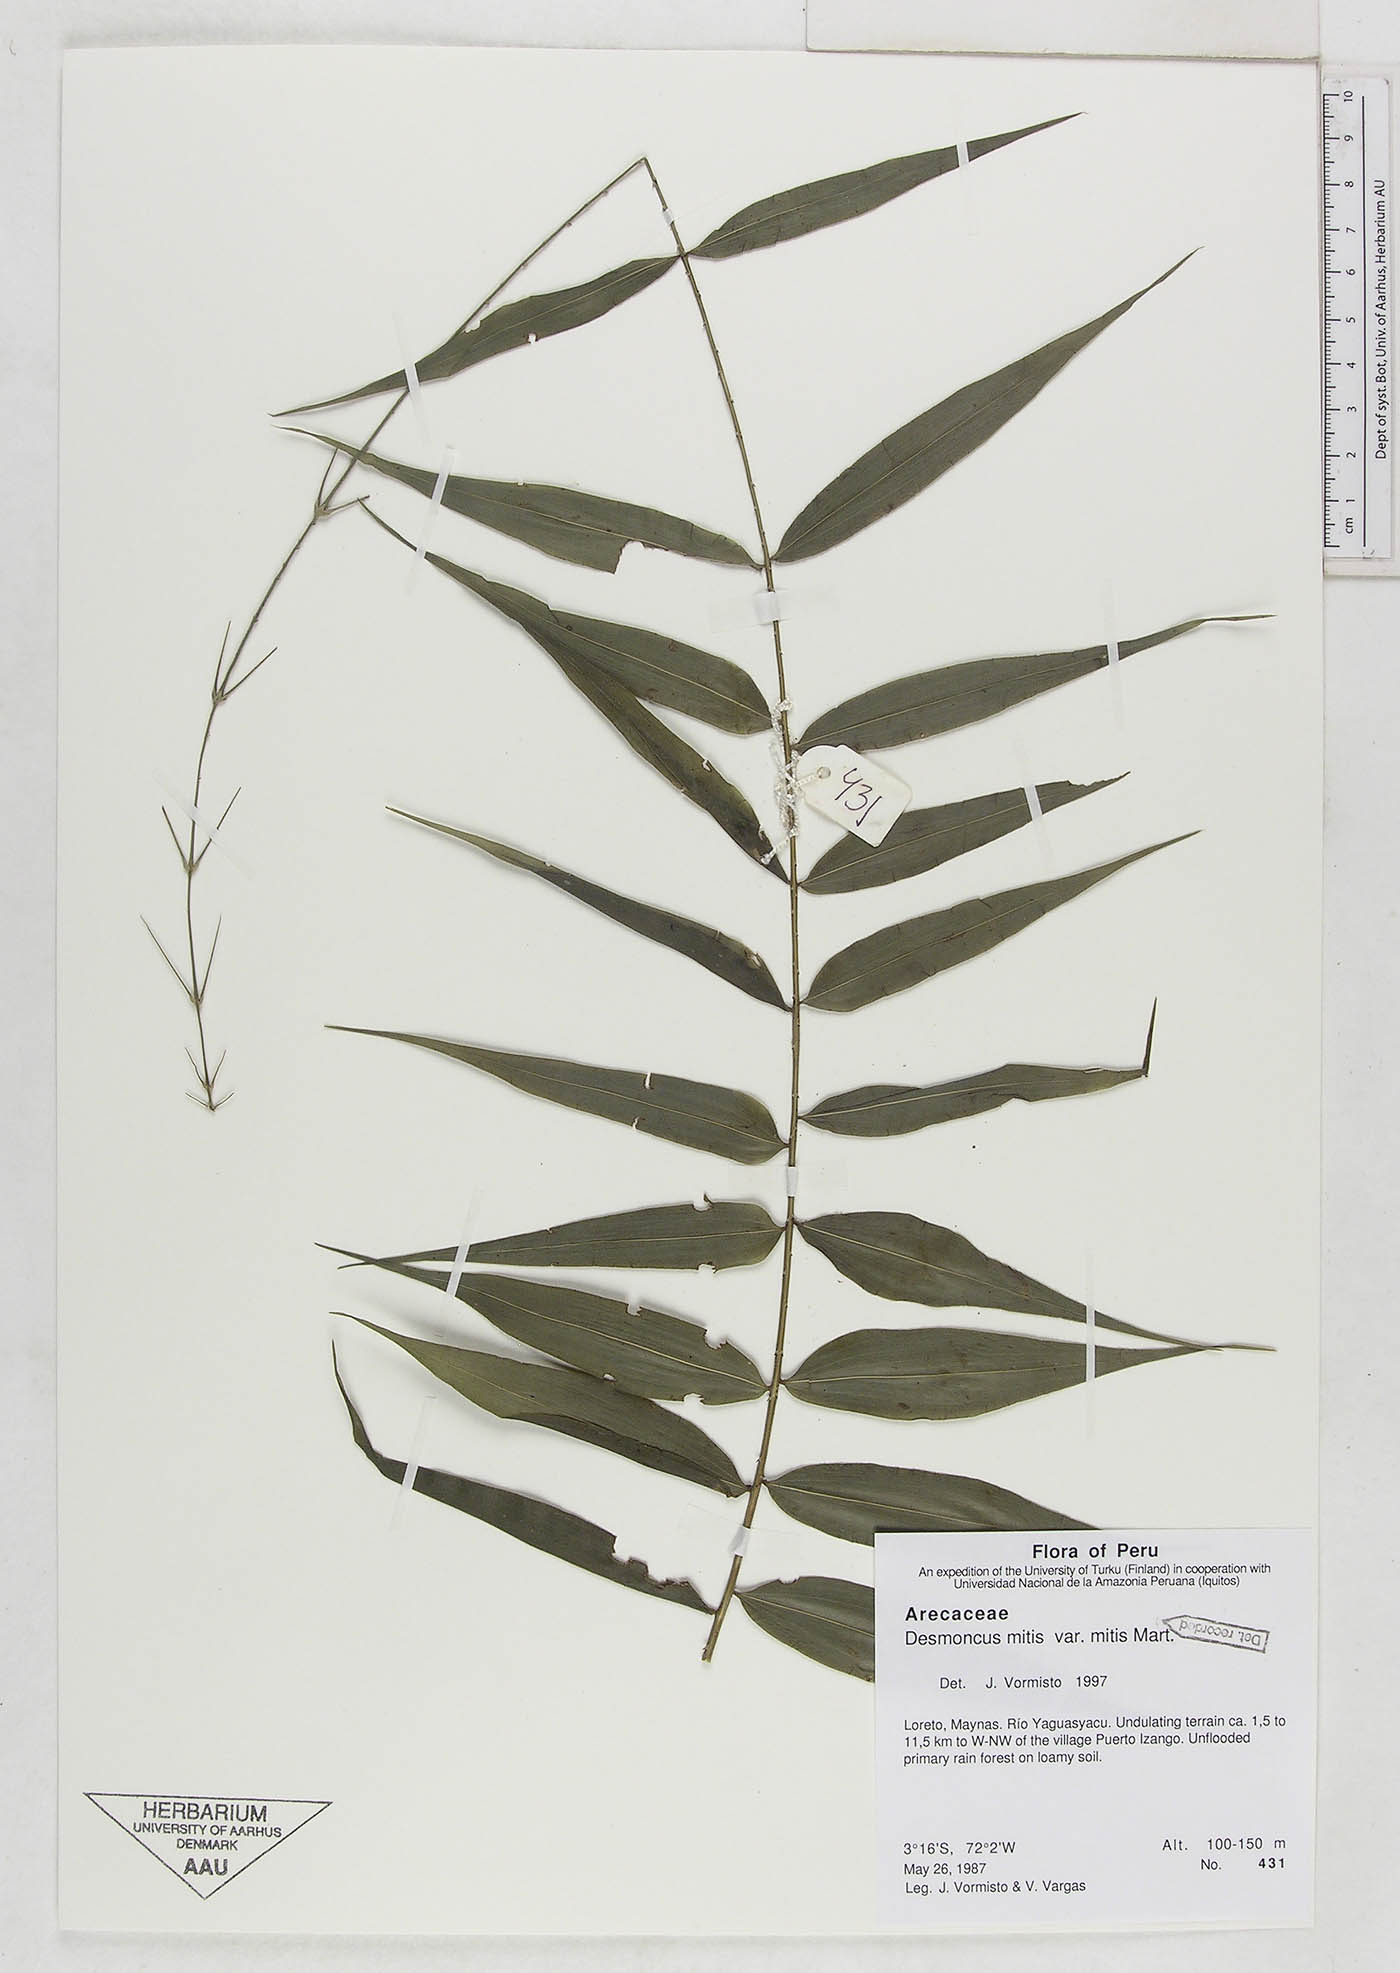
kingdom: Plantae
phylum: Tracheophyta
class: Liliopsida
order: Arecales
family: Arecaceae
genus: Desmoncus
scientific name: Desmoncus mitis
